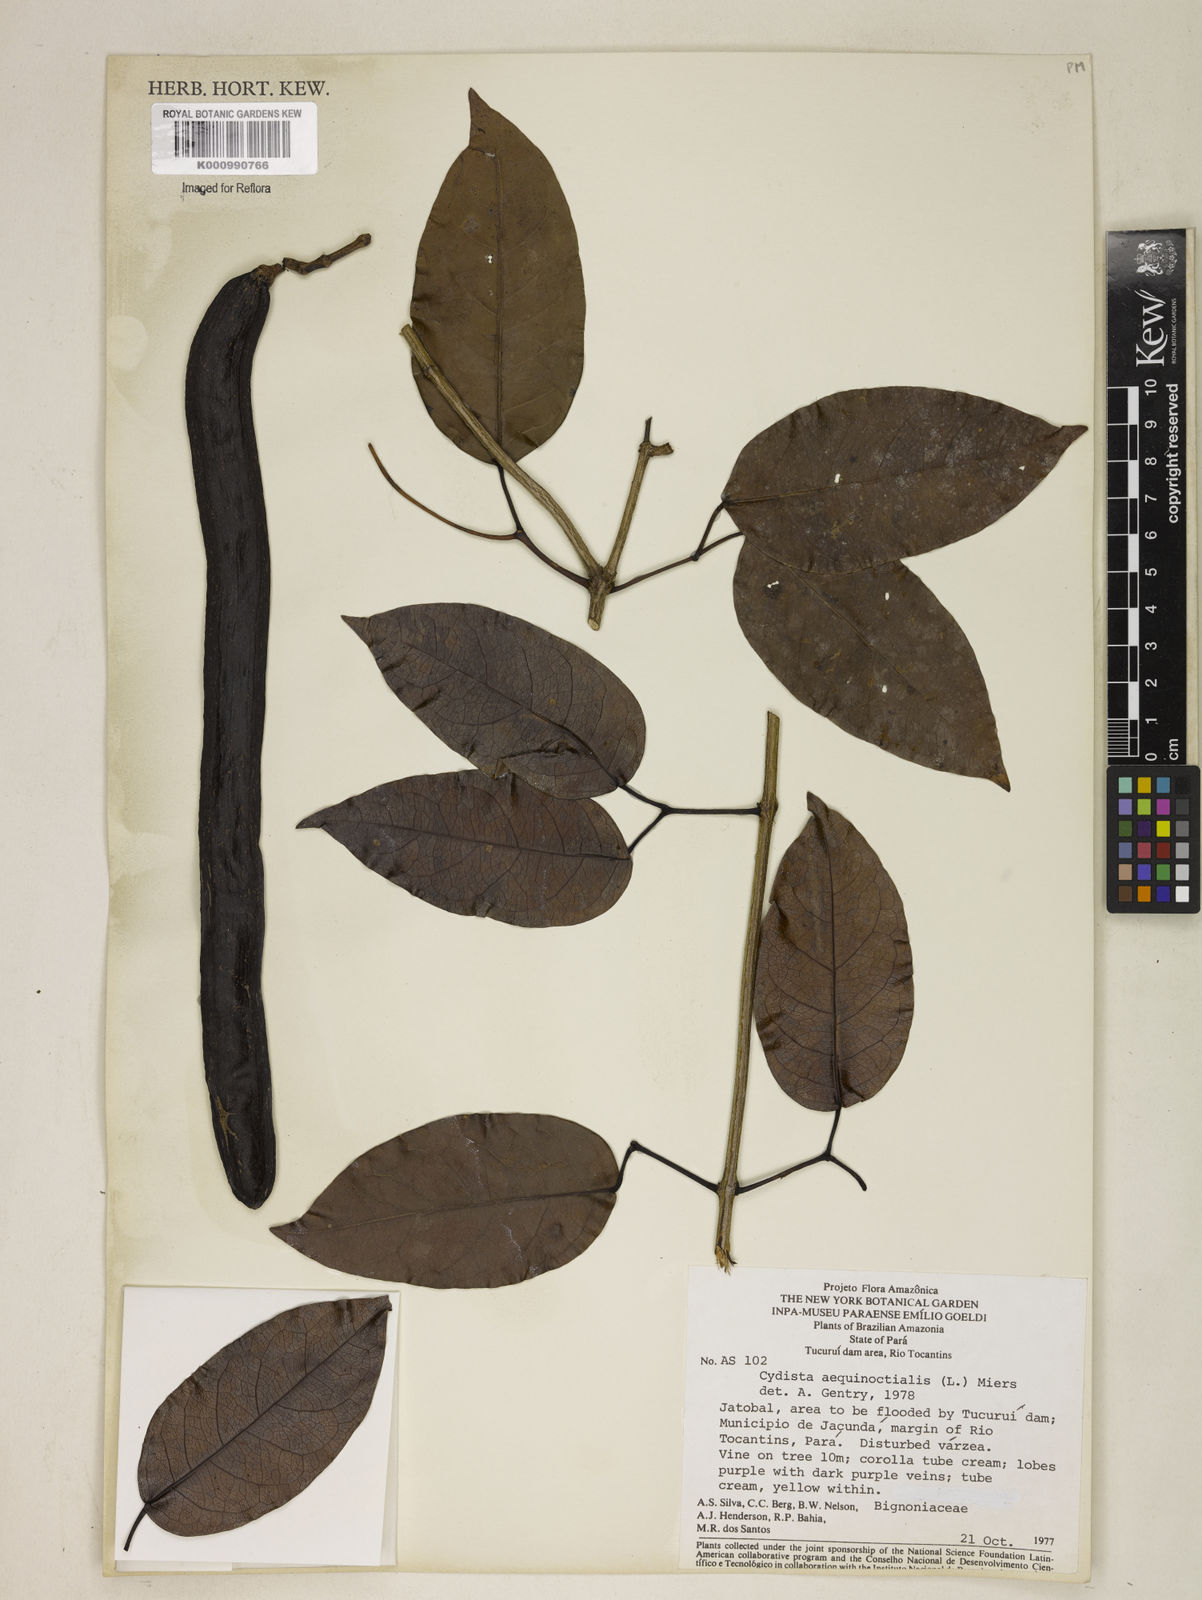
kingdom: Plantae
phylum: Tracheophyta
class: Magnoliopsida
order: Lamiales
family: Bignoniaceae
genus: Bignonia
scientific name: Bignonia aequinoctialis
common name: Garlicvine
